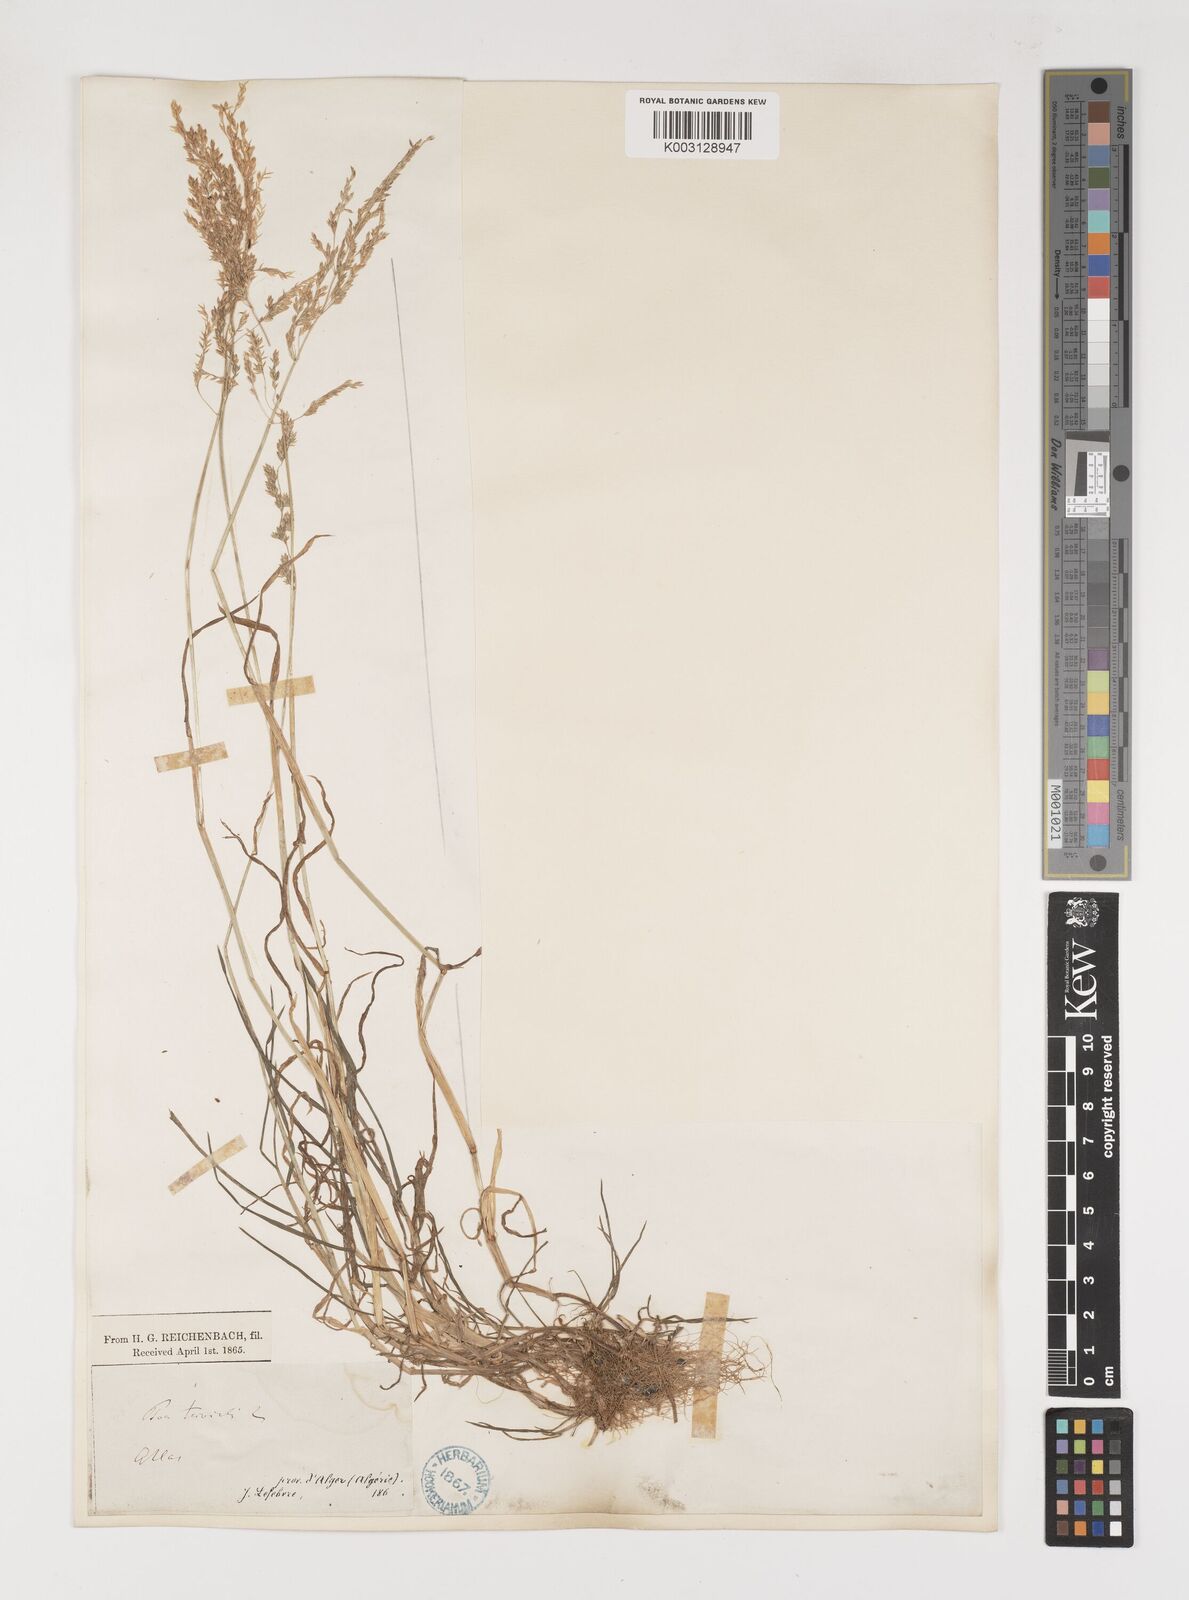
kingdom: Plantae
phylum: Tracheophyta
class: Liliopsida
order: Poales
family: Poaceae
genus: Poa
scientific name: Poa trivialis
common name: Rough bluegrass
